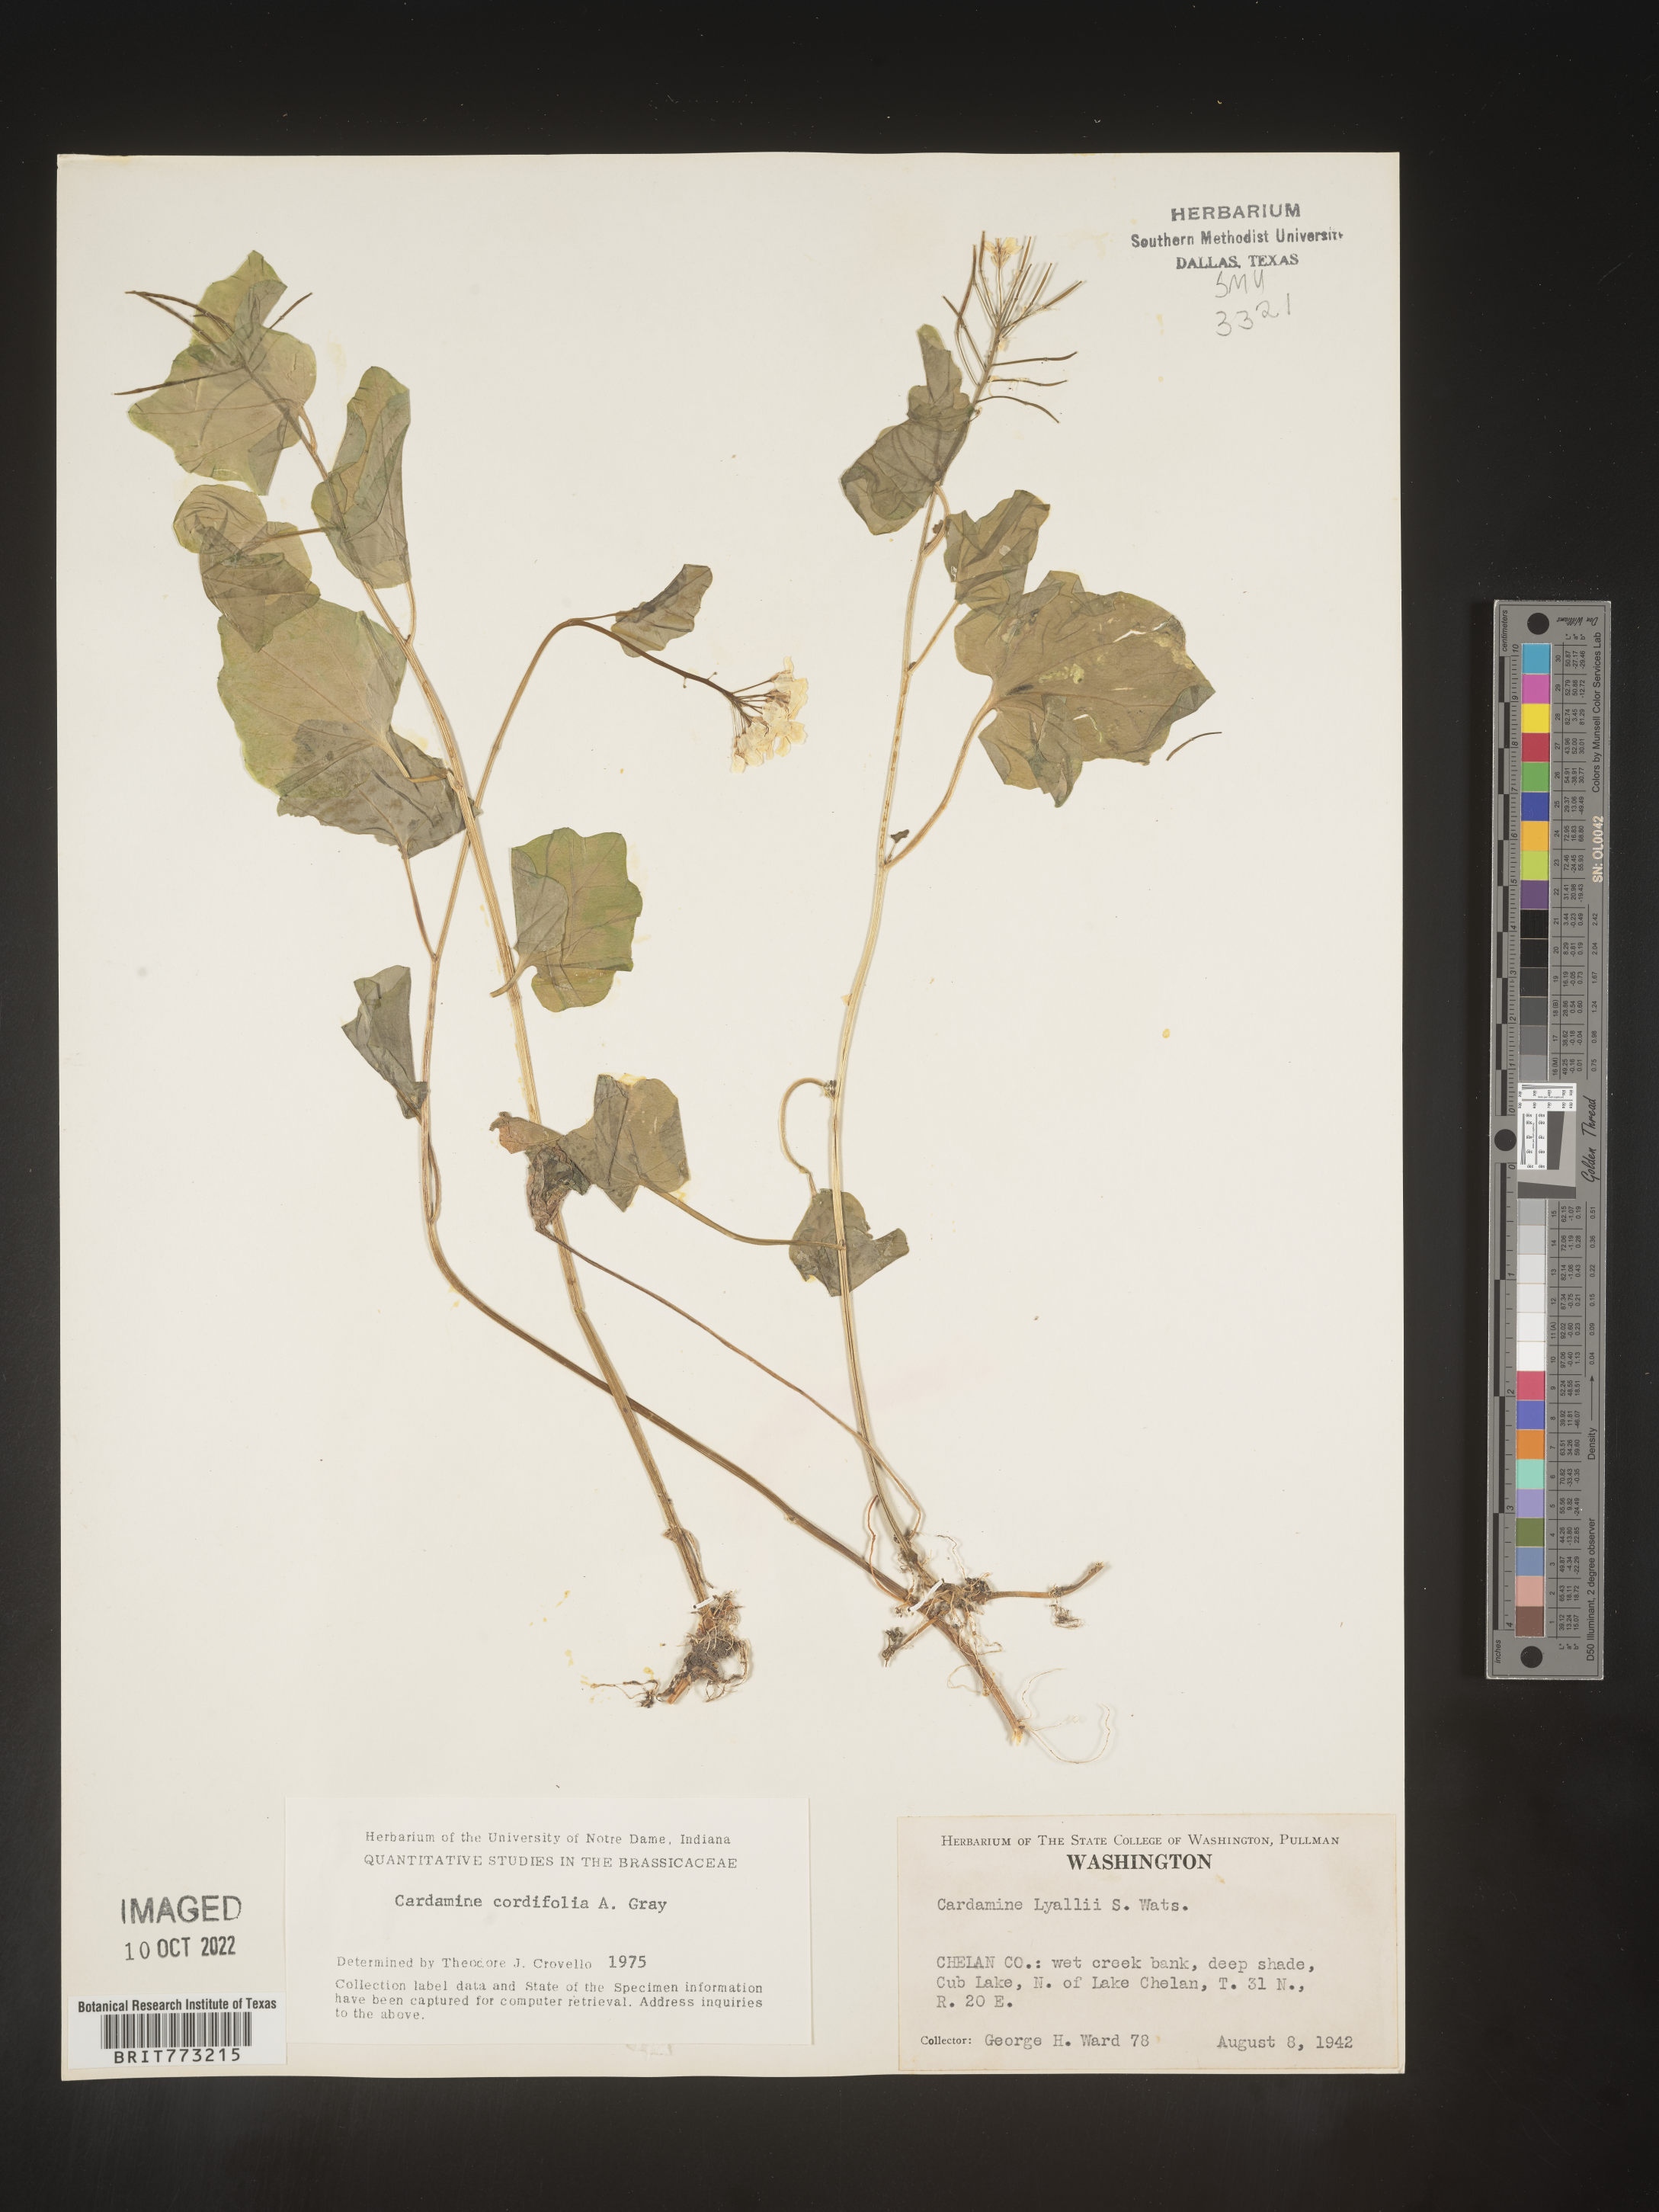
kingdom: Plantae
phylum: Tracheophyta
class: Magnoliopsida
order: Brassicales
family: Brassicaceae
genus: Cardamine
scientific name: Cardamine
